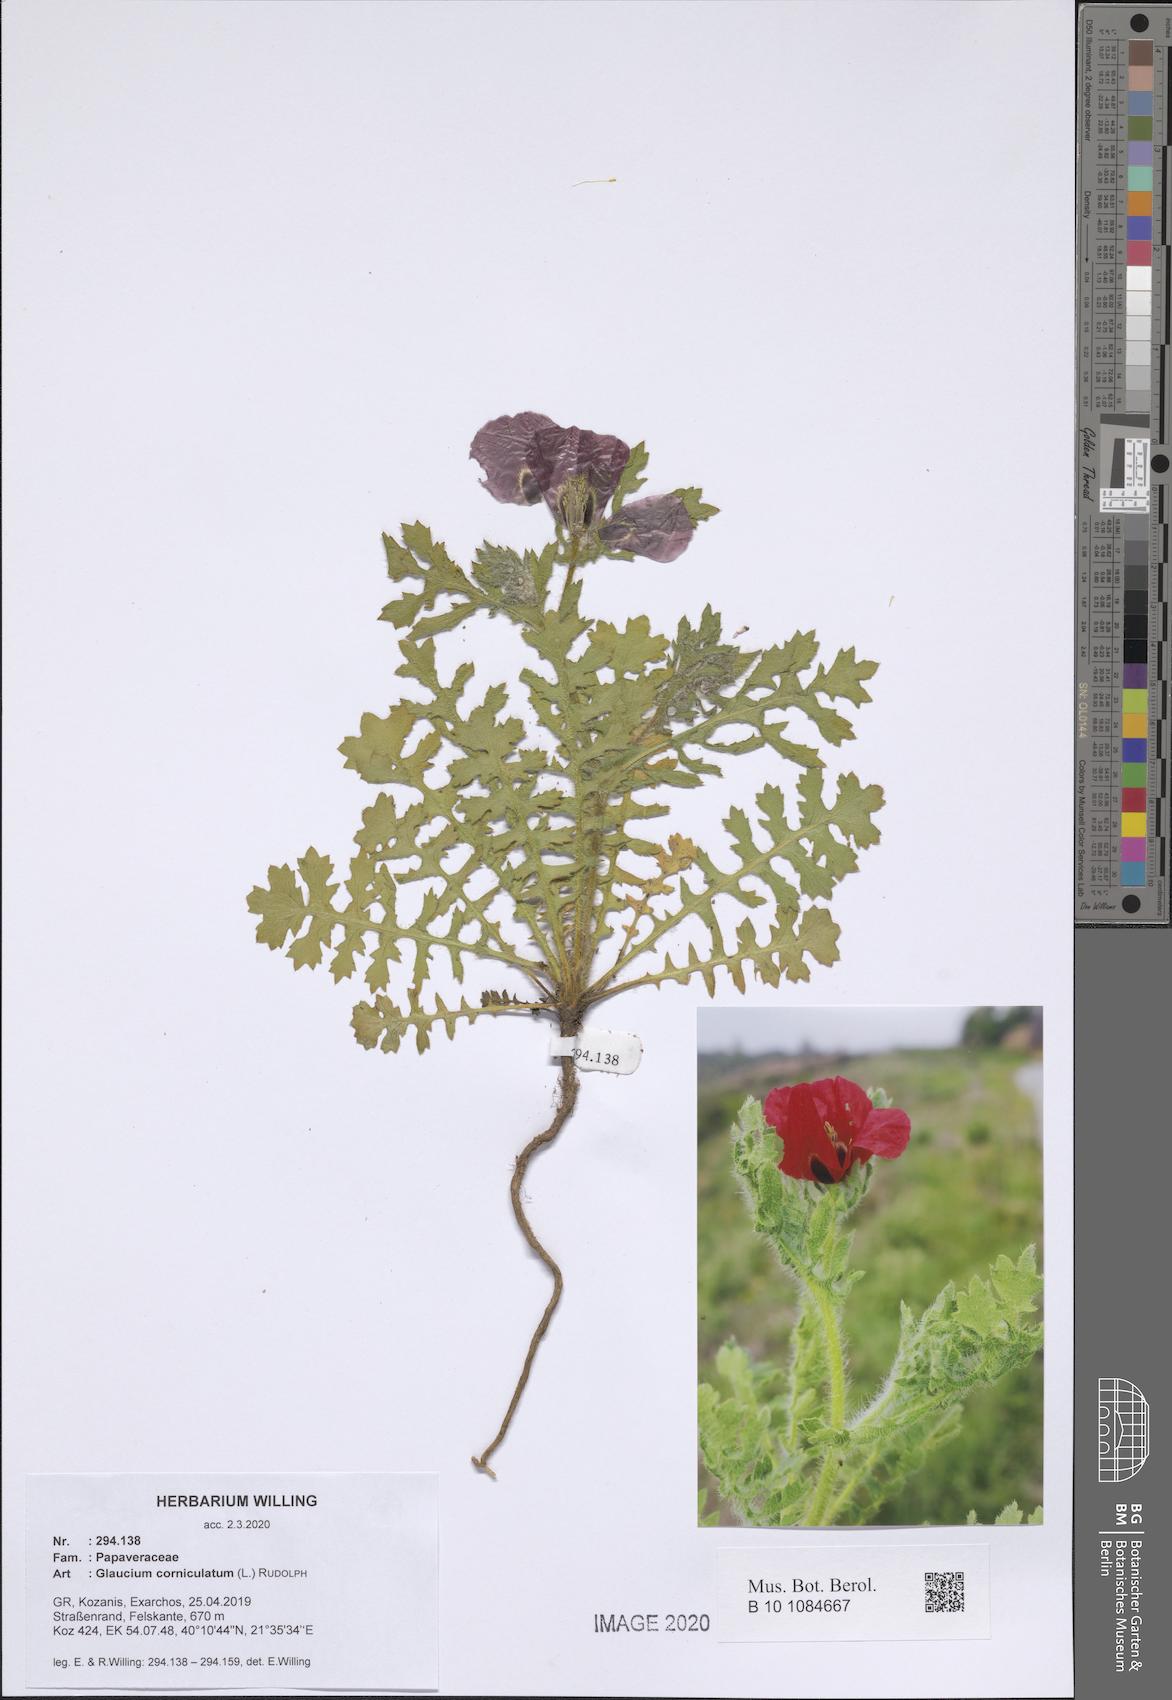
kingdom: Plantae
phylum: Tracheophyta
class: Magnoliopsida
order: Ranunculales
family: Papaveraceae
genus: Glaucium
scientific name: Glaucium corniculatum
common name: Red horned-poppy
